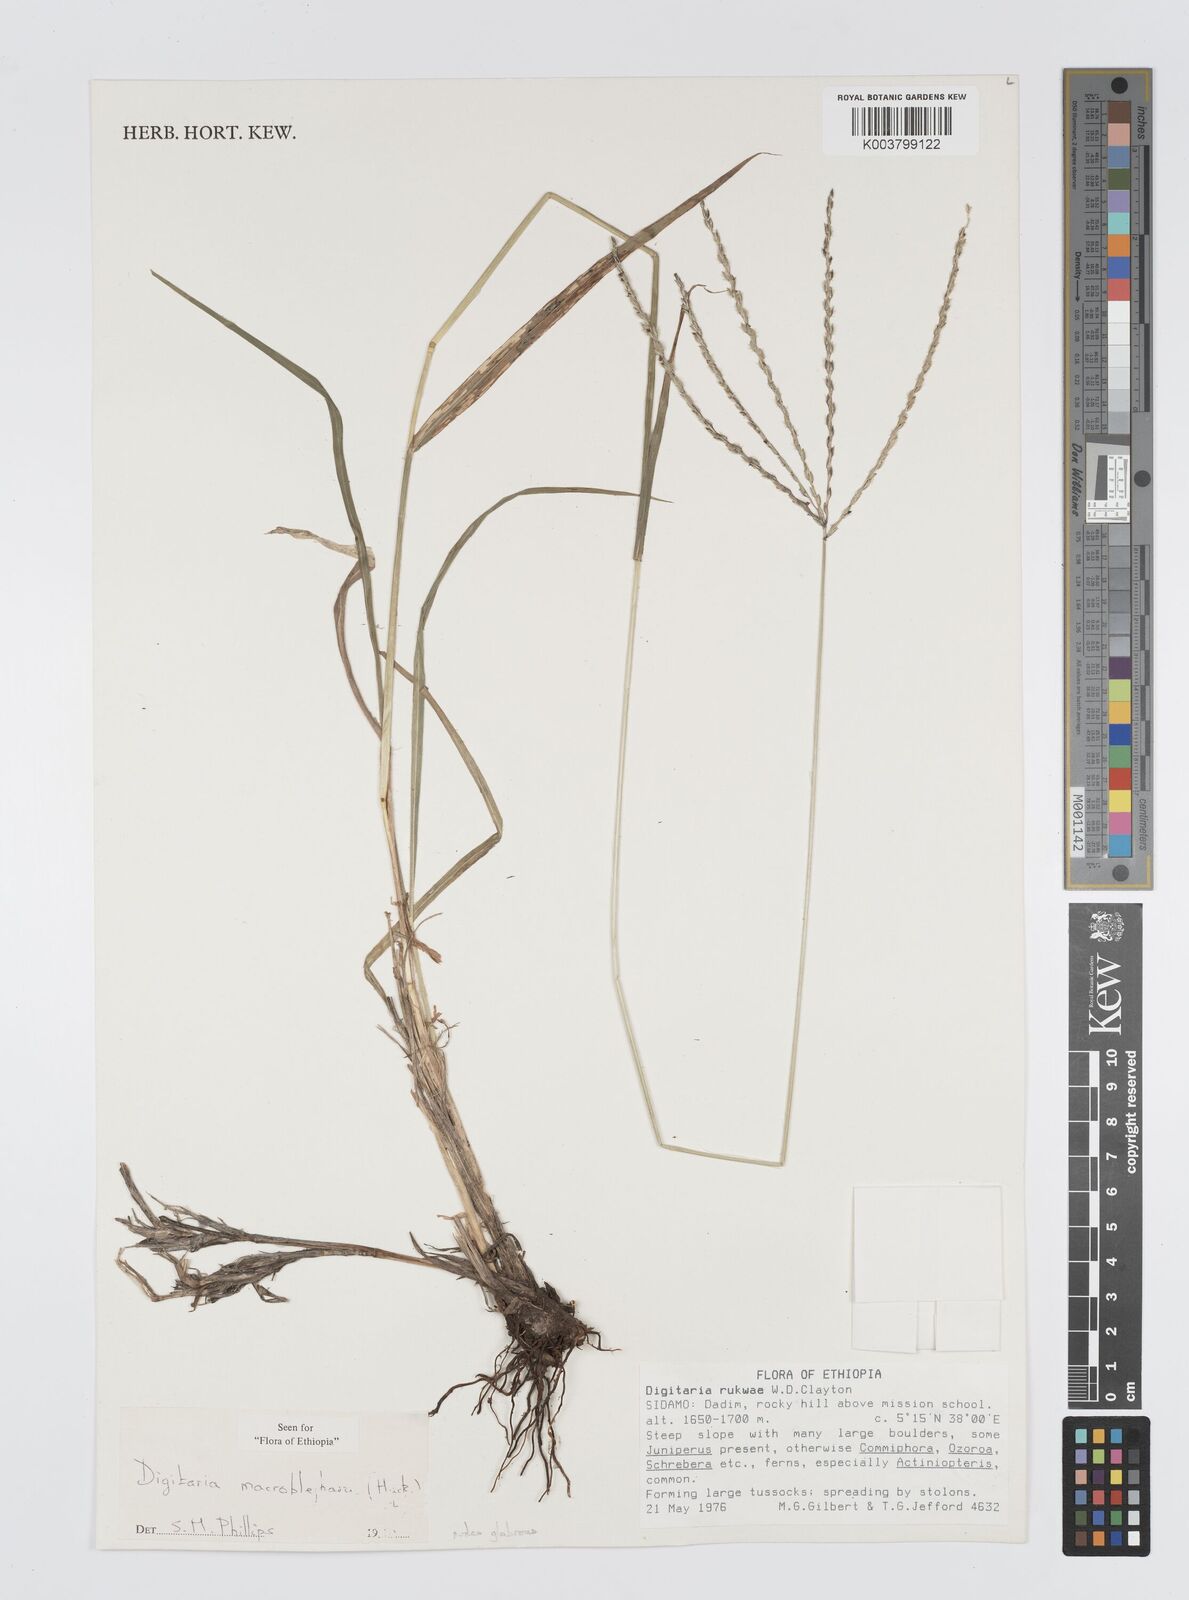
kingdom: Plantae
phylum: Tracheophyta
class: Liliopsida
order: Poales
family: Poaceae
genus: Digitaria
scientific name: Digitaria macroblephara
